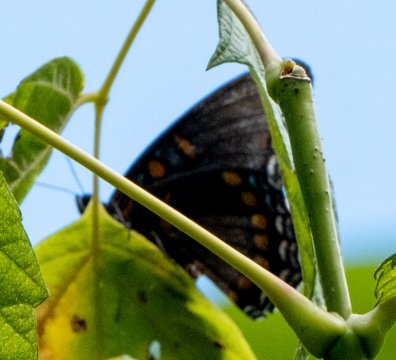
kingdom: Animalia
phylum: Arthropoda
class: Insecta
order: Lepidoptera
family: Nymphalidae
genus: Limenitis
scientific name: Limenitis arthemis
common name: Red-spotted Admiral
